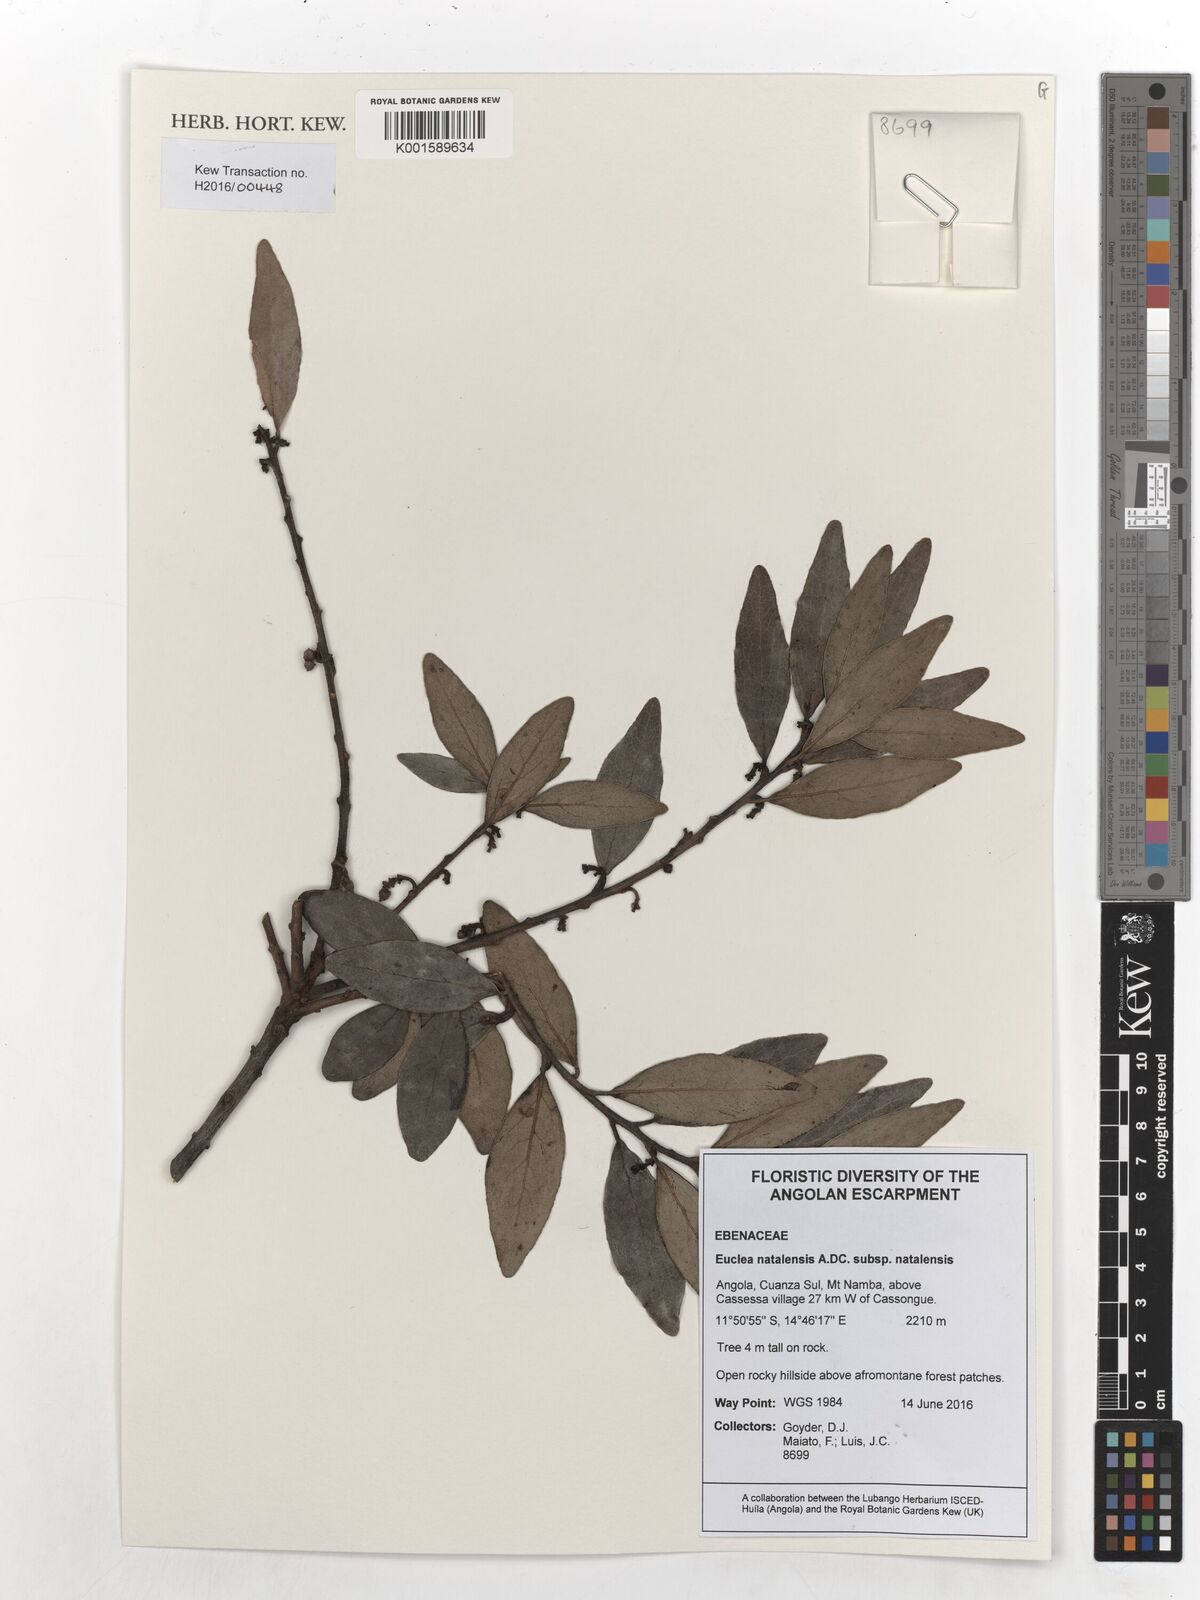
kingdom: Plantae
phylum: Tracheophyta
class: Magnoliopsida
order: Ericales
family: Ebenaceae
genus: Euclea
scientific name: Euclea natalensis
